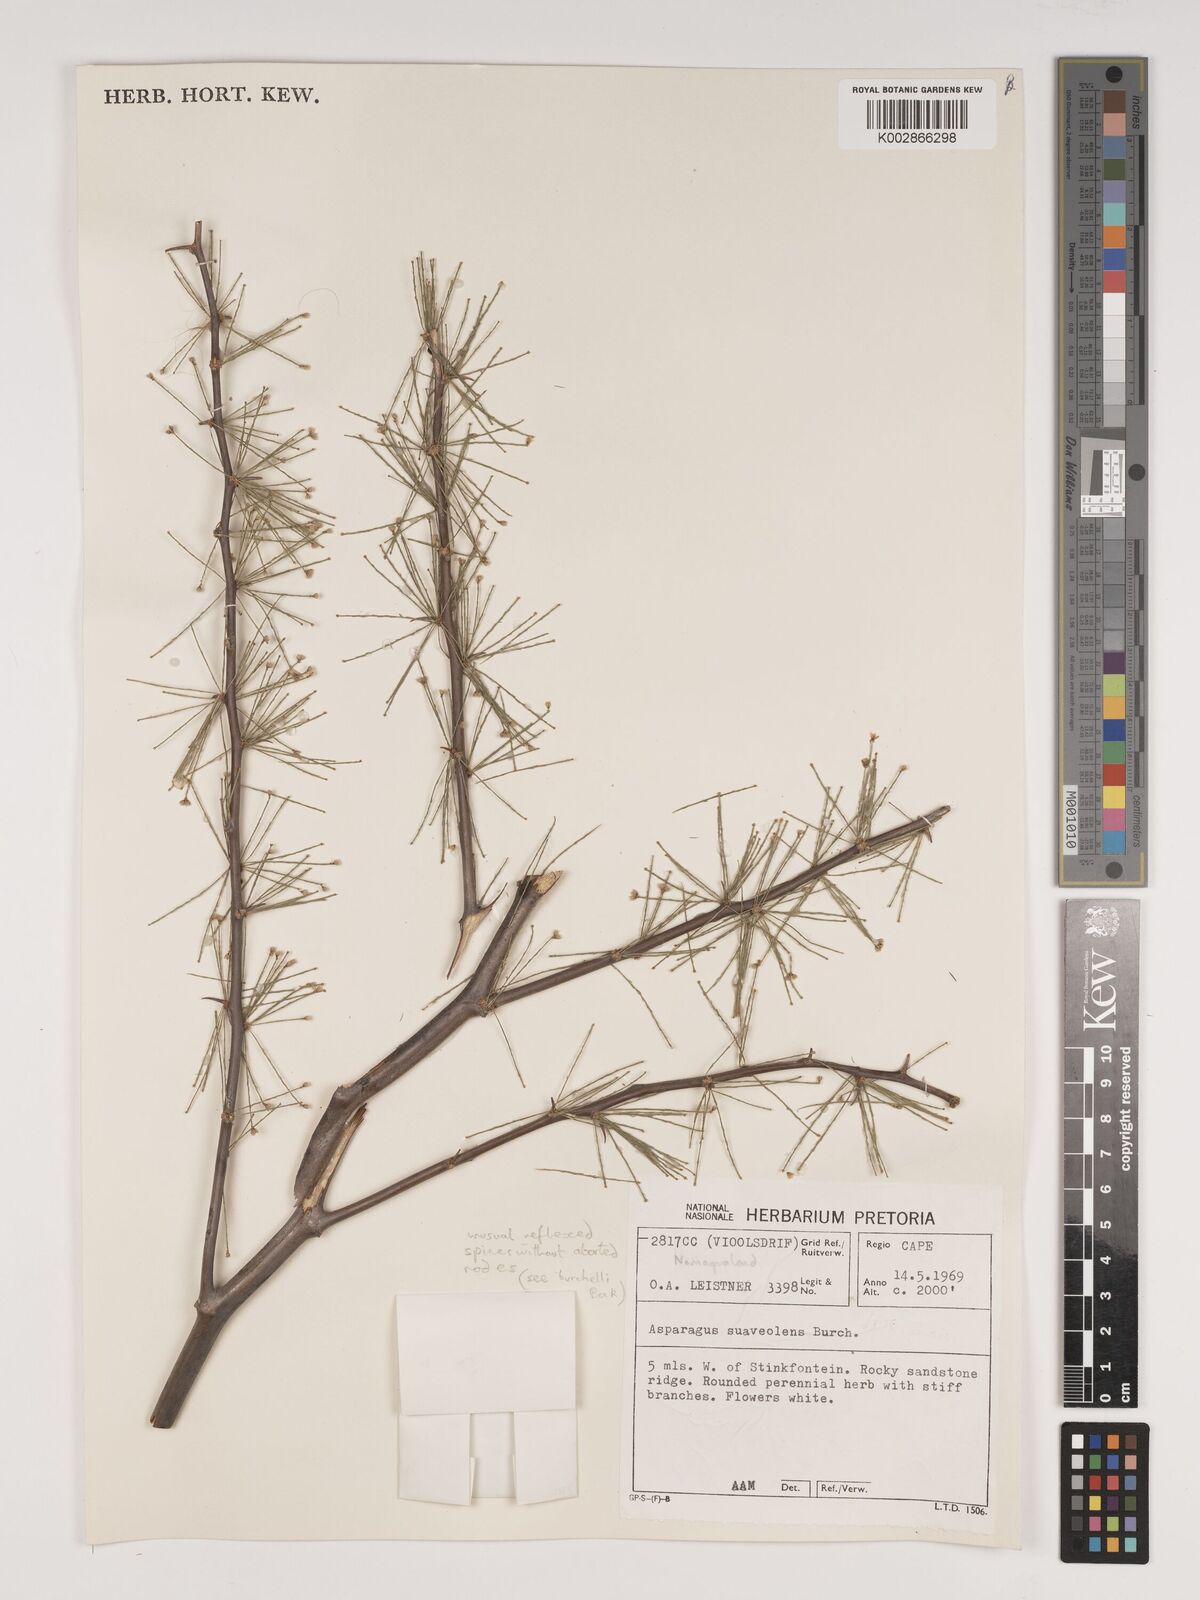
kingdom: Plantae
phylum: Tracheophyta
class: Liliopsida
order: Asparagales
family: Asparagaceae
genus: Asparagus
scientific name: Asparagus suaveolens
